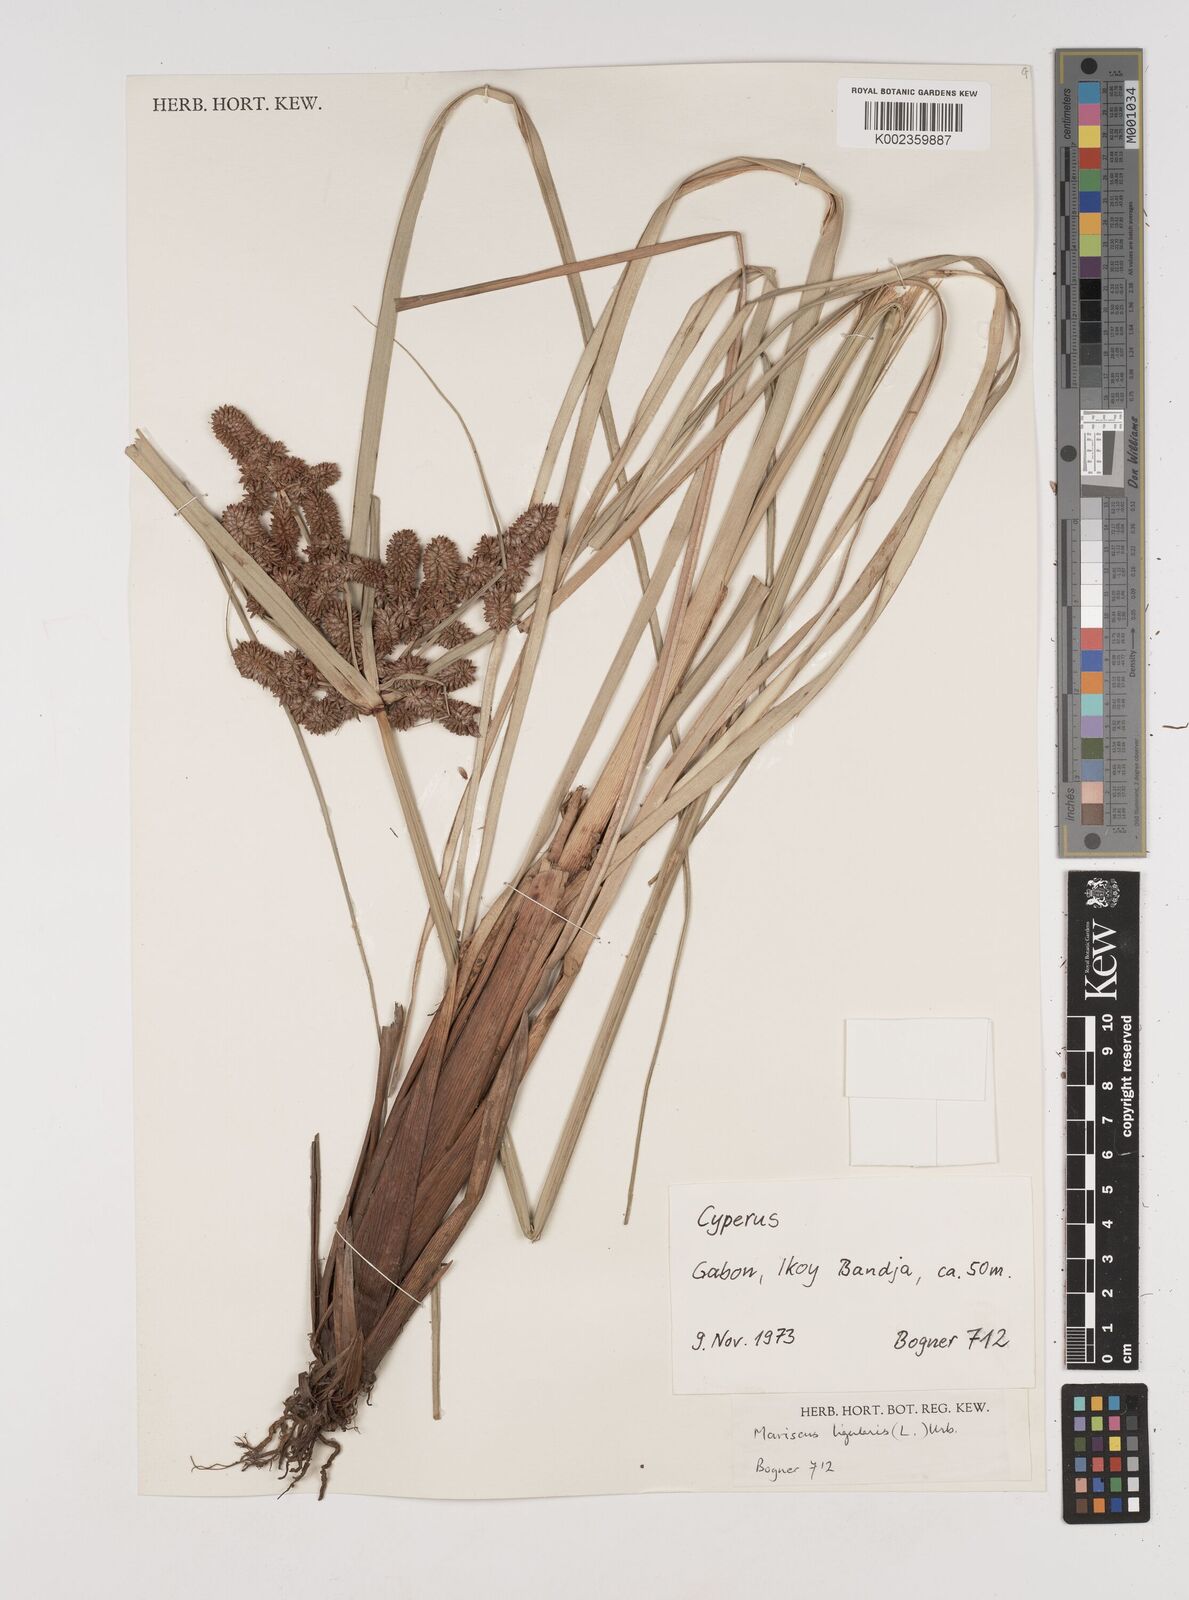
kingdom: Plantae
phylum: Tracheophyta
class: Liliopsida
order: Poales
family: Cyperaceae
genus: Cyperus
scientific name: Cyperus ligularis
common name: Swamp flat sedge
